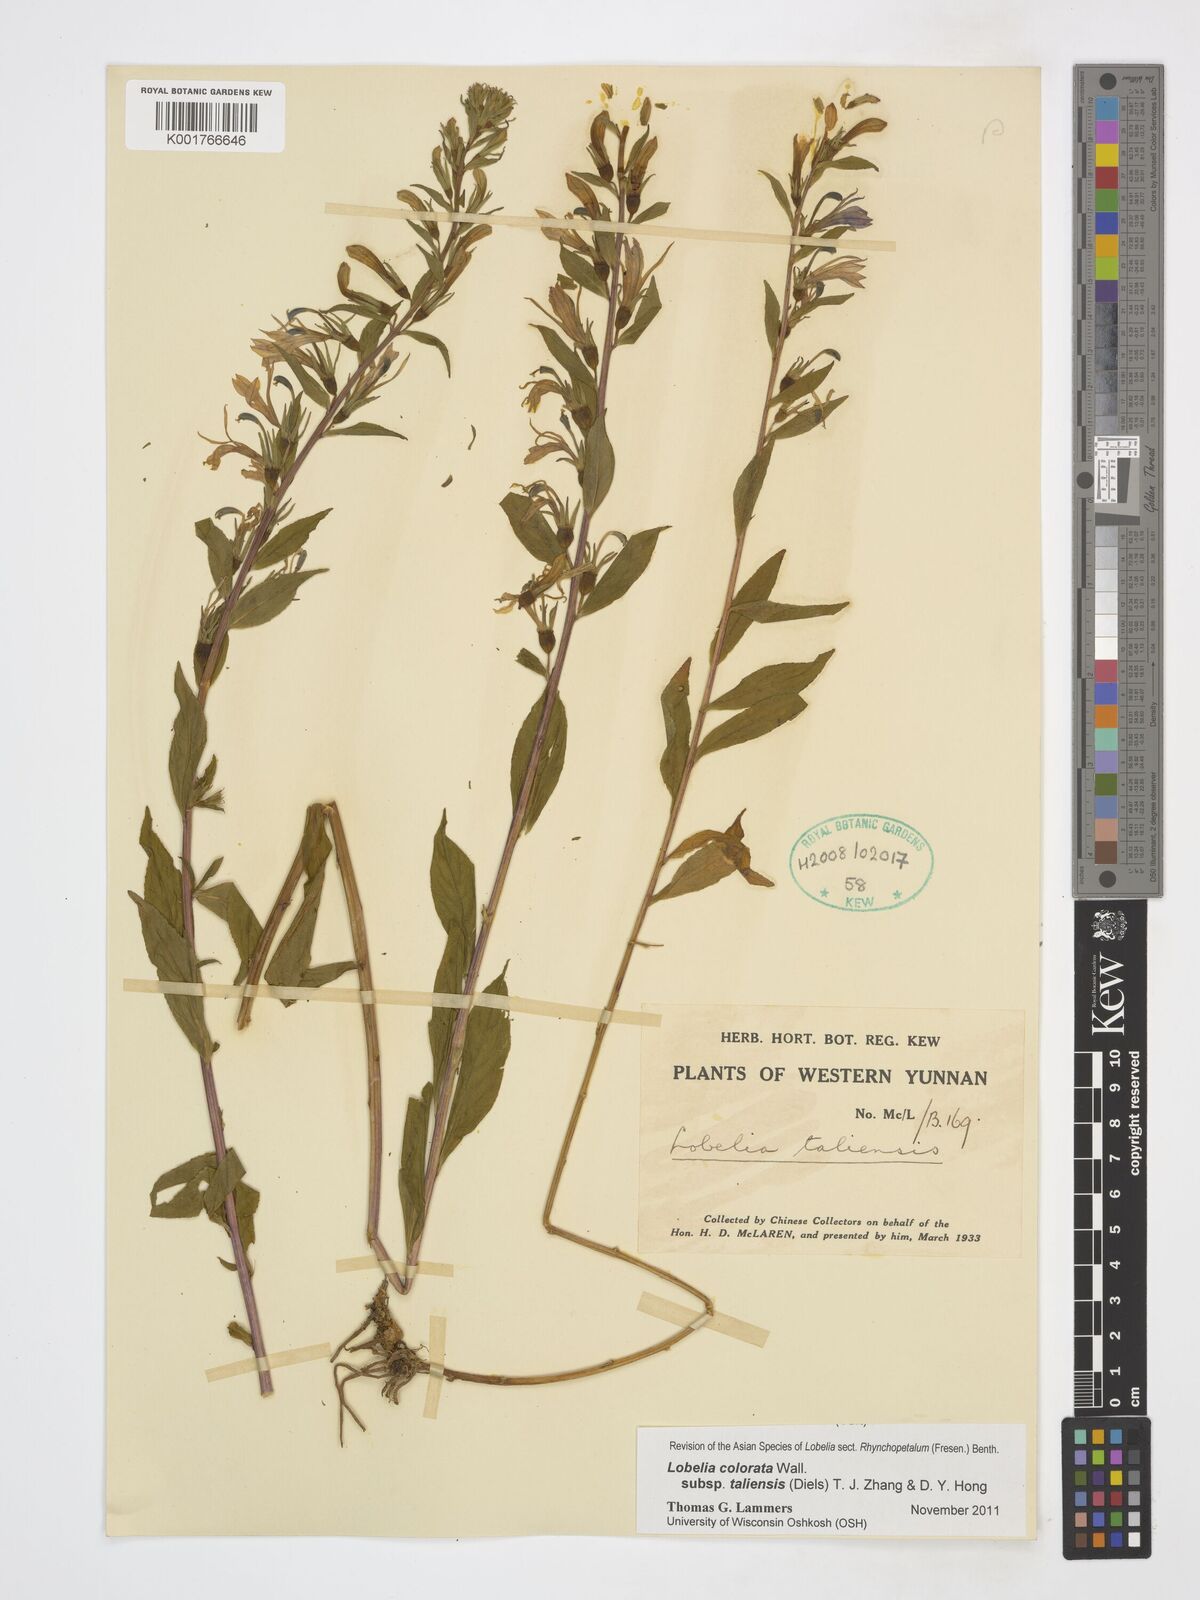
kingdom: Plantae
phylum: Tracheophyta
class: Magnoliopsida
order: Asterales
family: Campanulaceae
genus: Lobelia
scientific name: Lobelia taliensis
